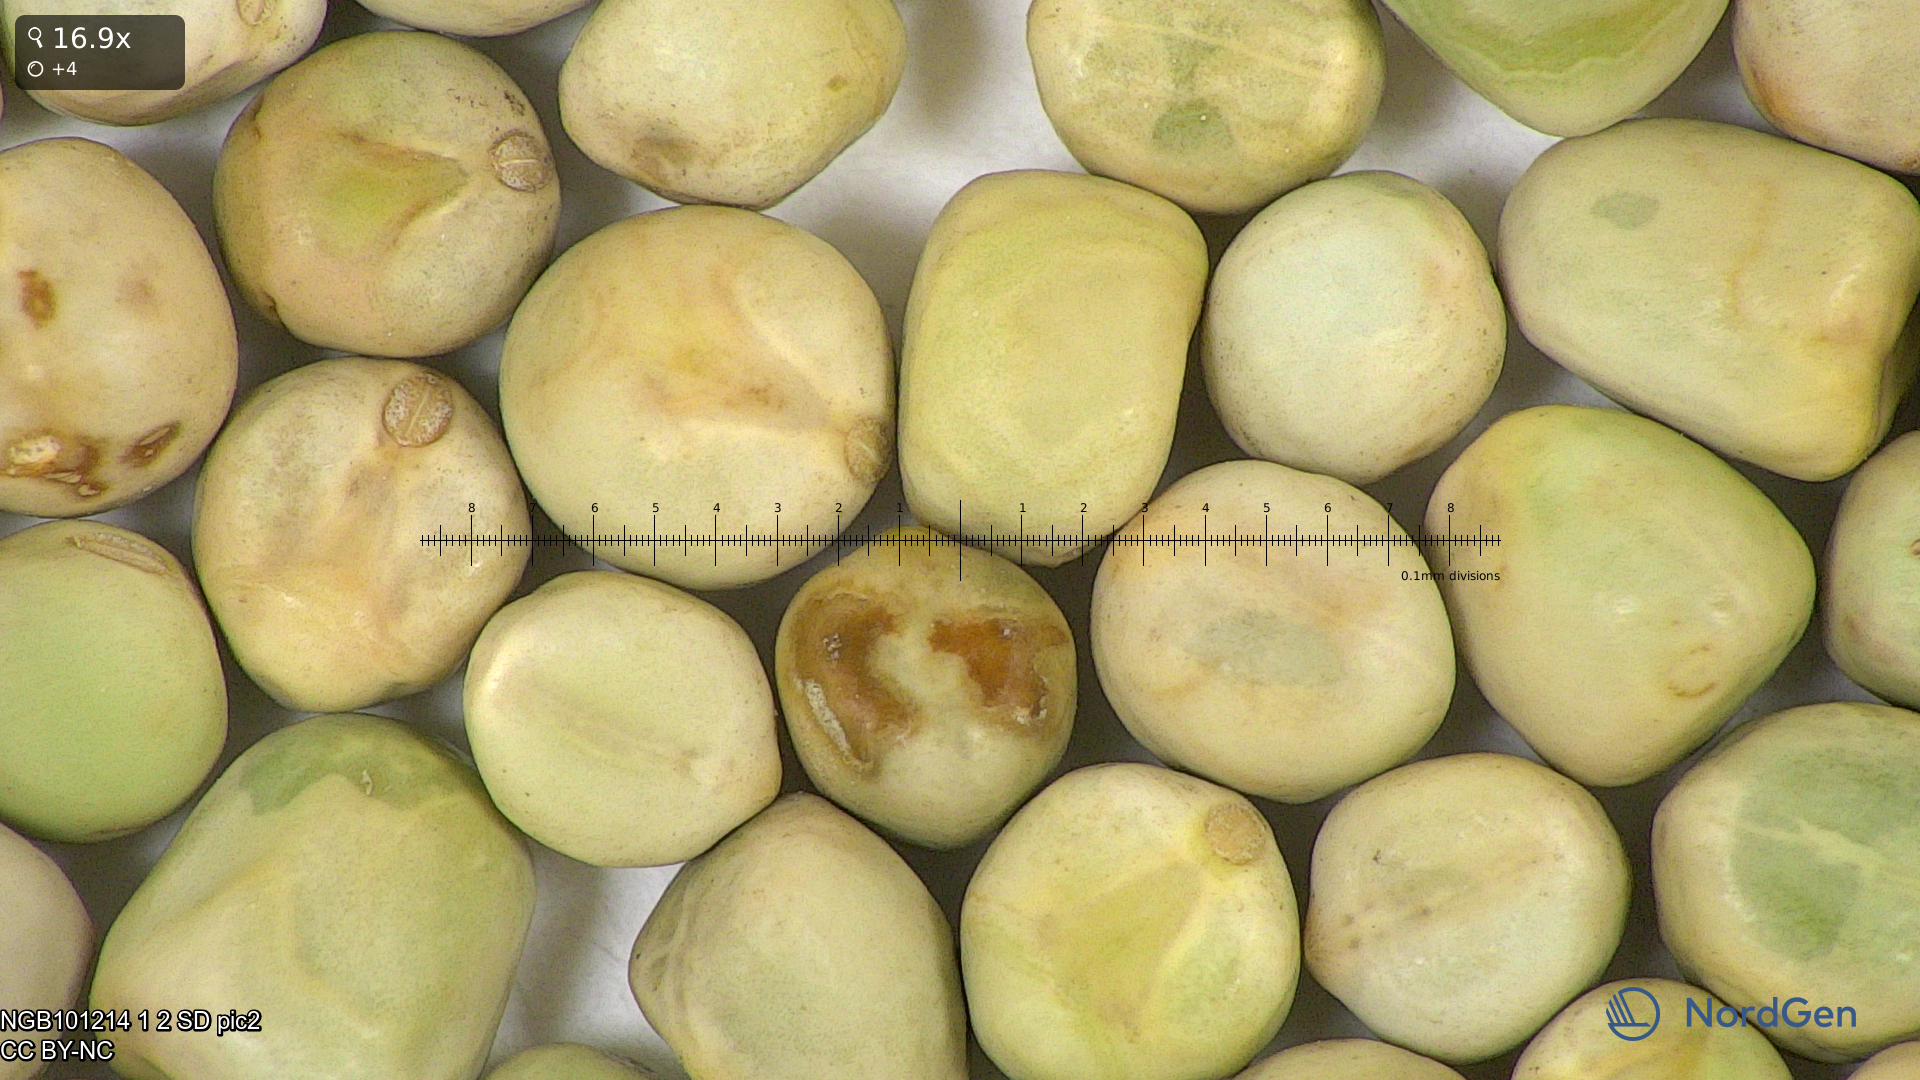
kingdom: Plantae
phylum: Tracheophyta
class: Magnoliopsida
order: Fabales
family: Fabaceae
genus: Lathyrus
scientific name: Lathyrus oleraceus
